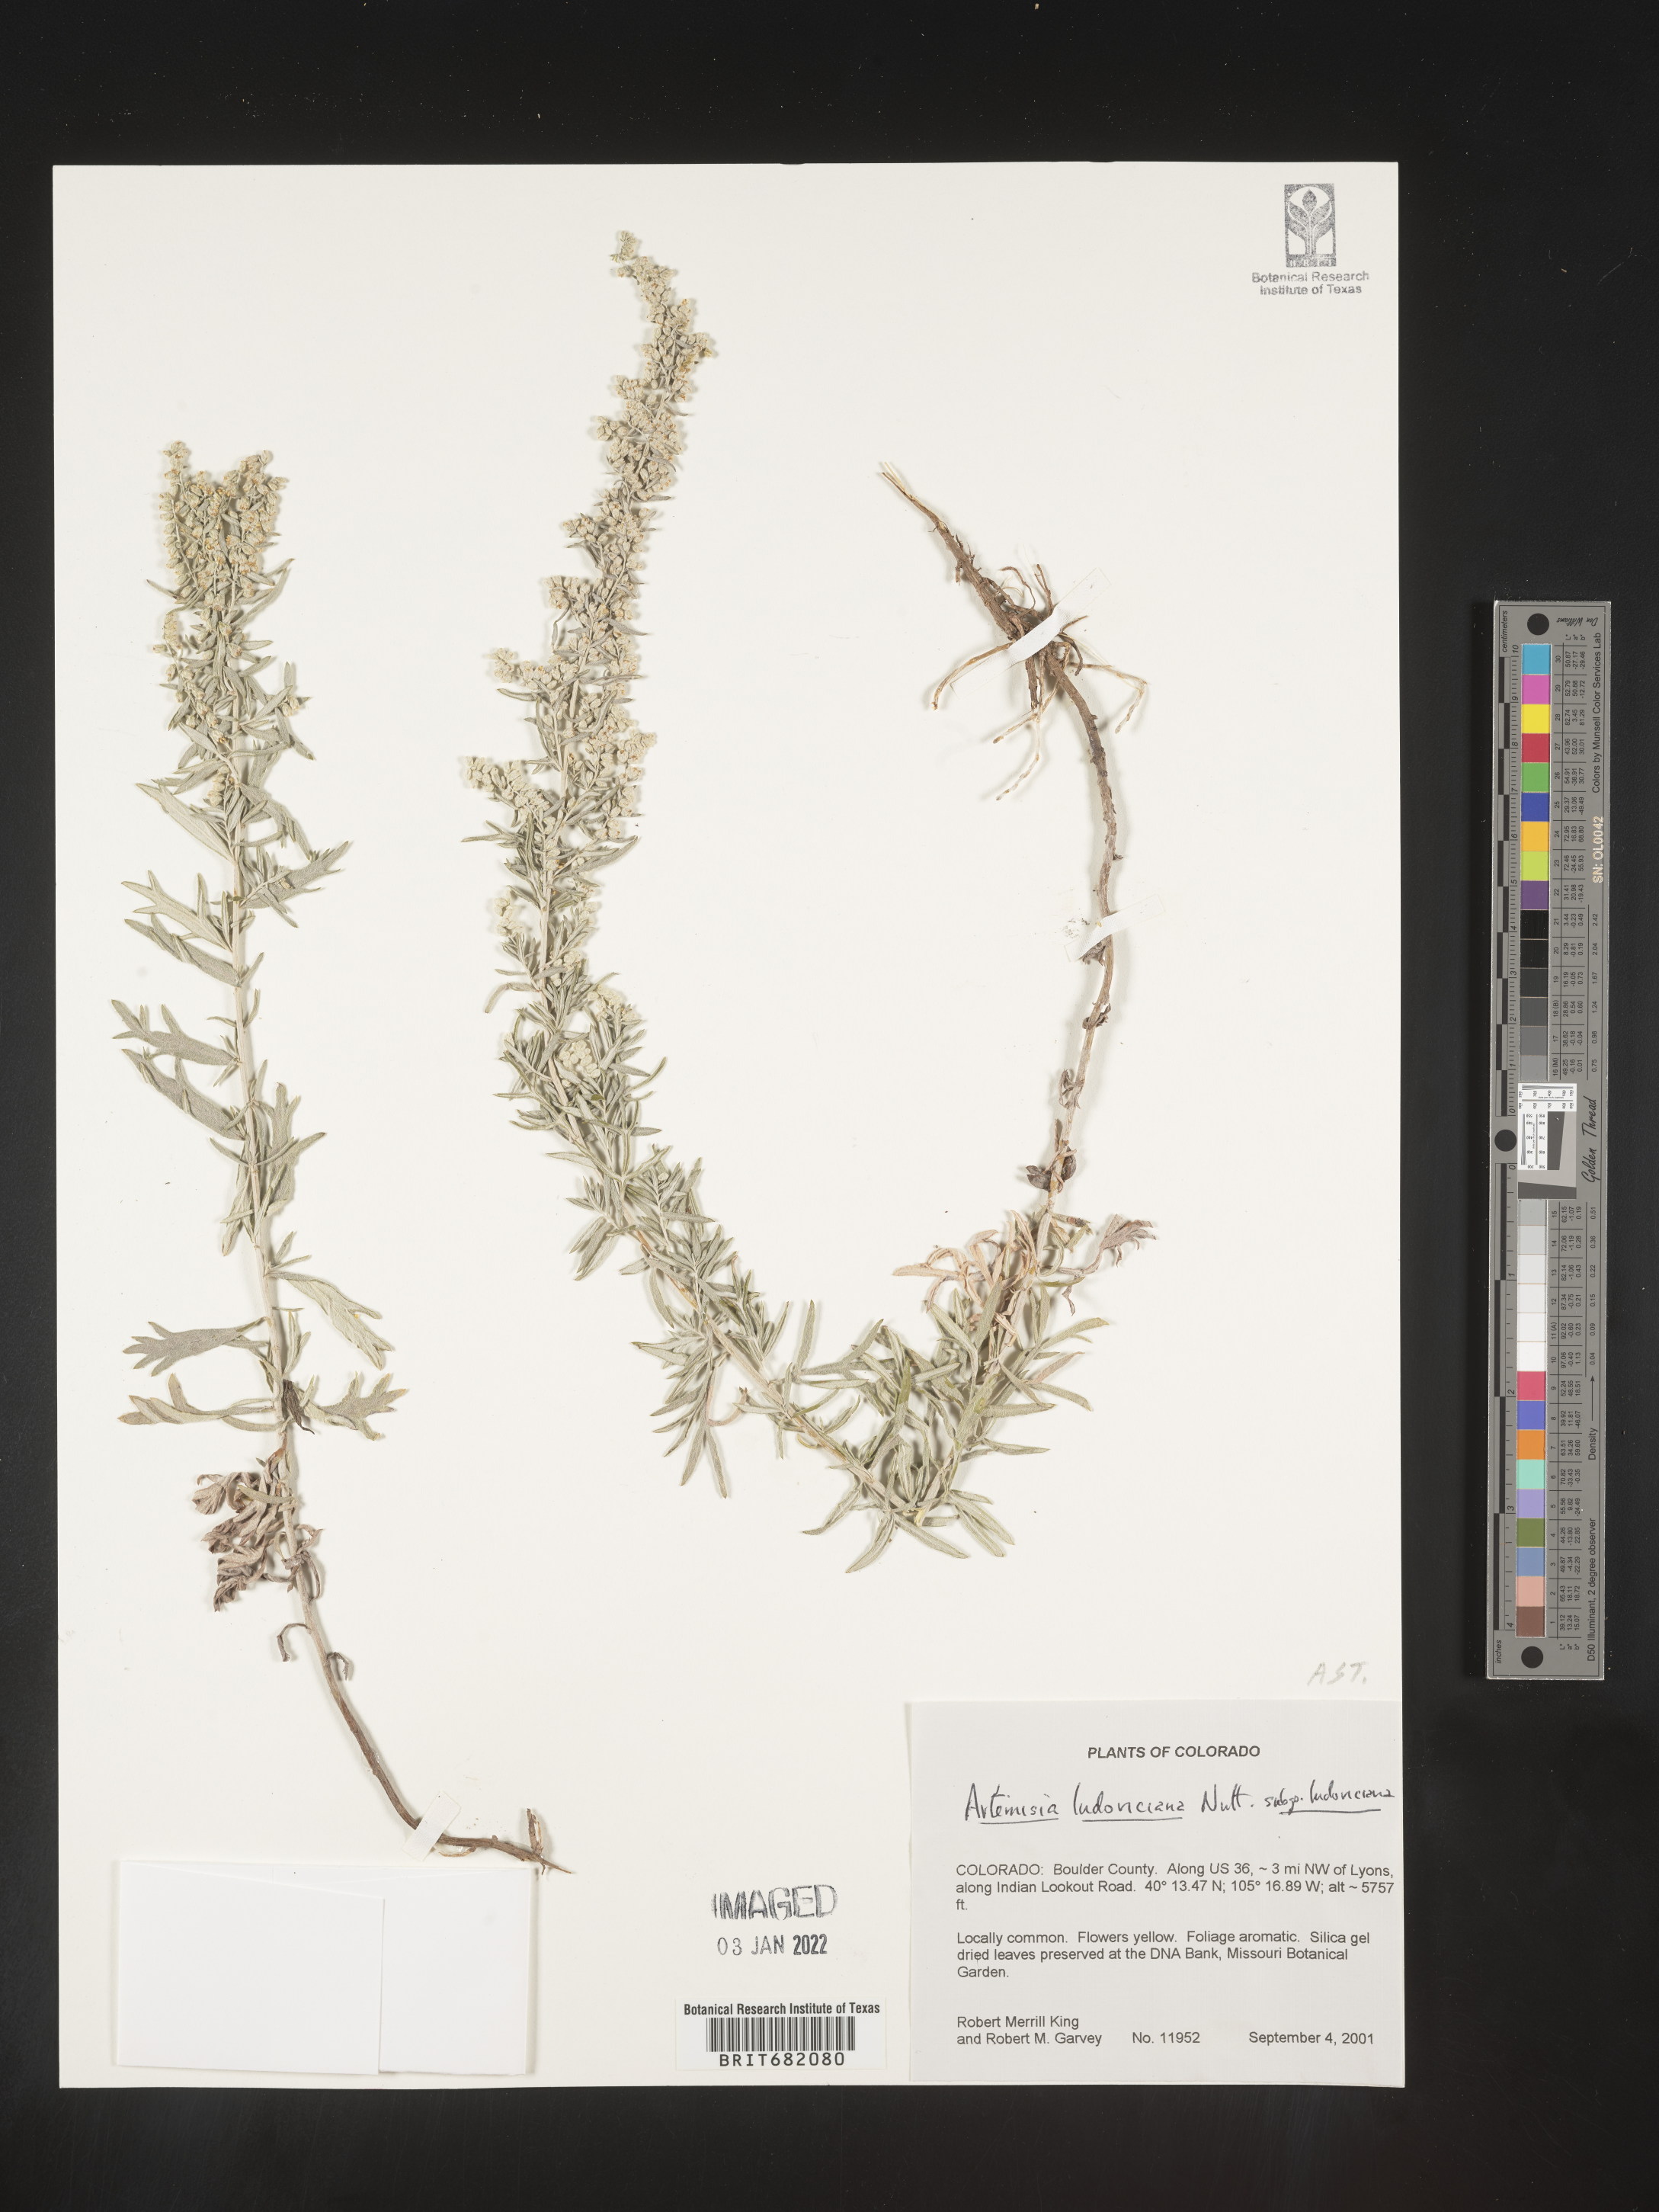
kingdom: Plantae
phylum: Tracheophyta
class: Magnoliopsida
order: Asterales
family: Asteraceae
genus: Artemisia
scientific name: Artemisia ludoviciana
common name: Western mugwort
